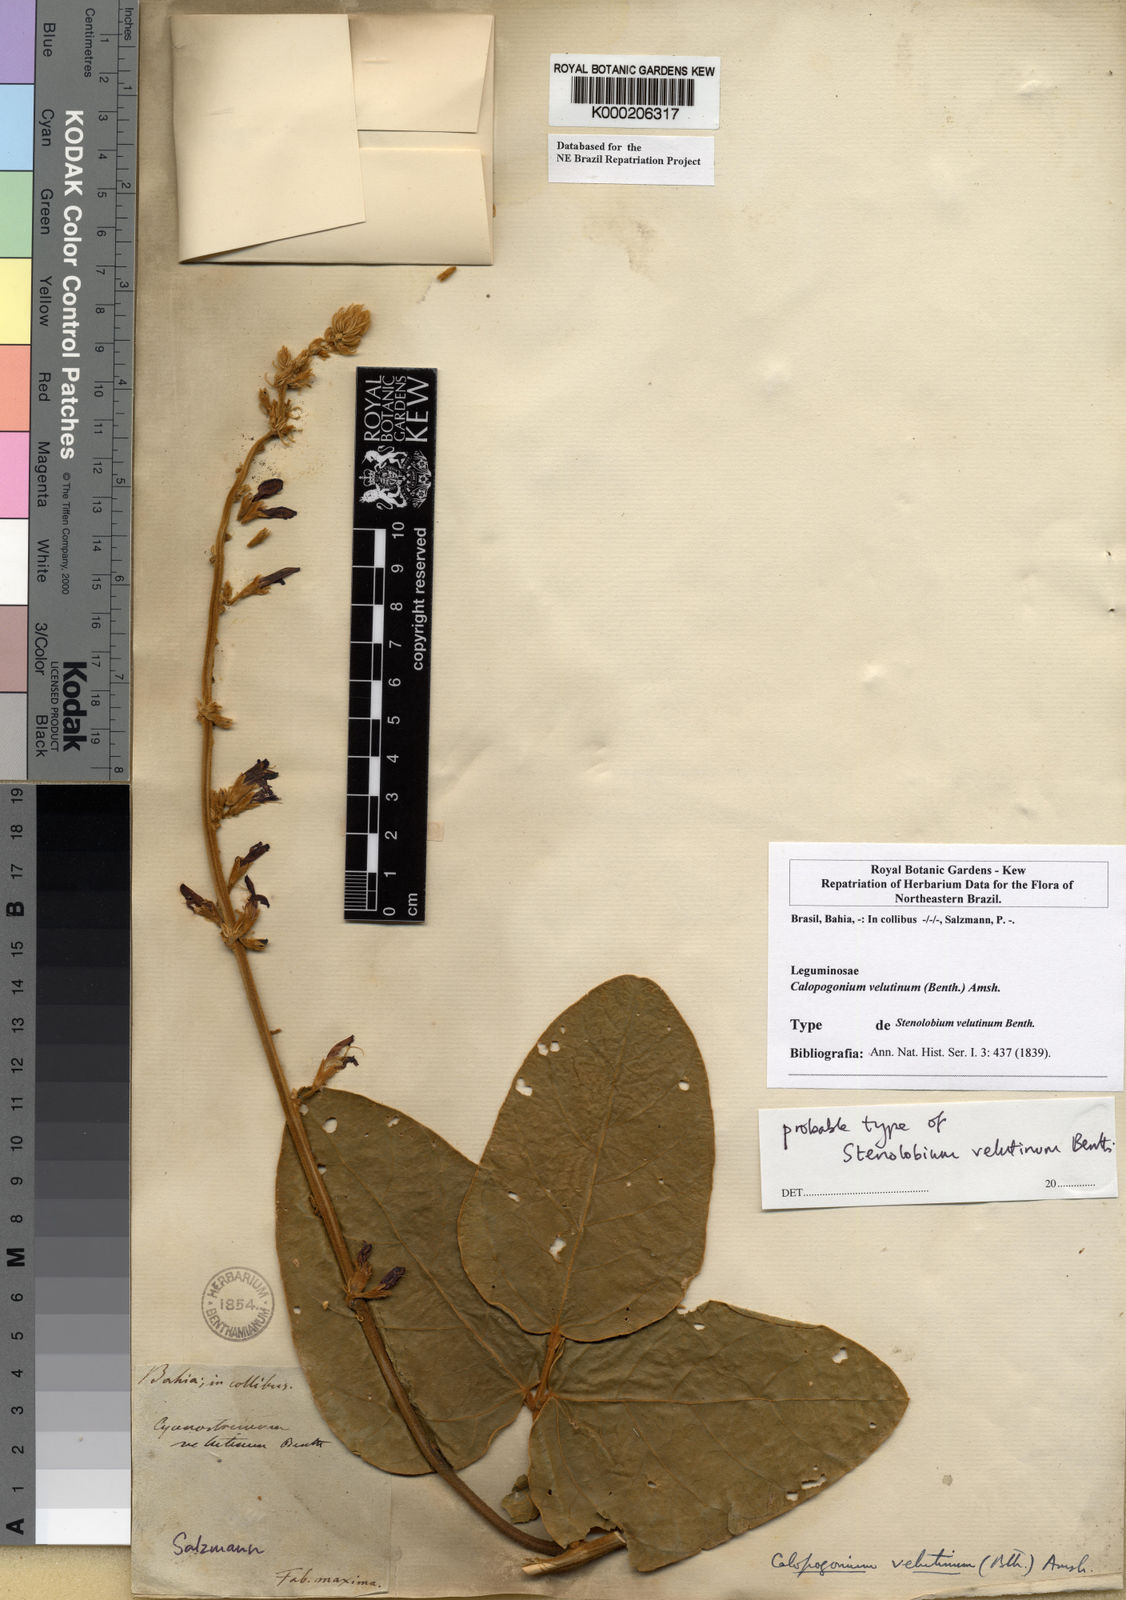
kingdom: Plantae
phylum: Tracheophyta
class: Magnoliopsida
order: Fabales
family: Fabaceae
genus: Calopogonium
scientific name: Calopogonium velutinum
